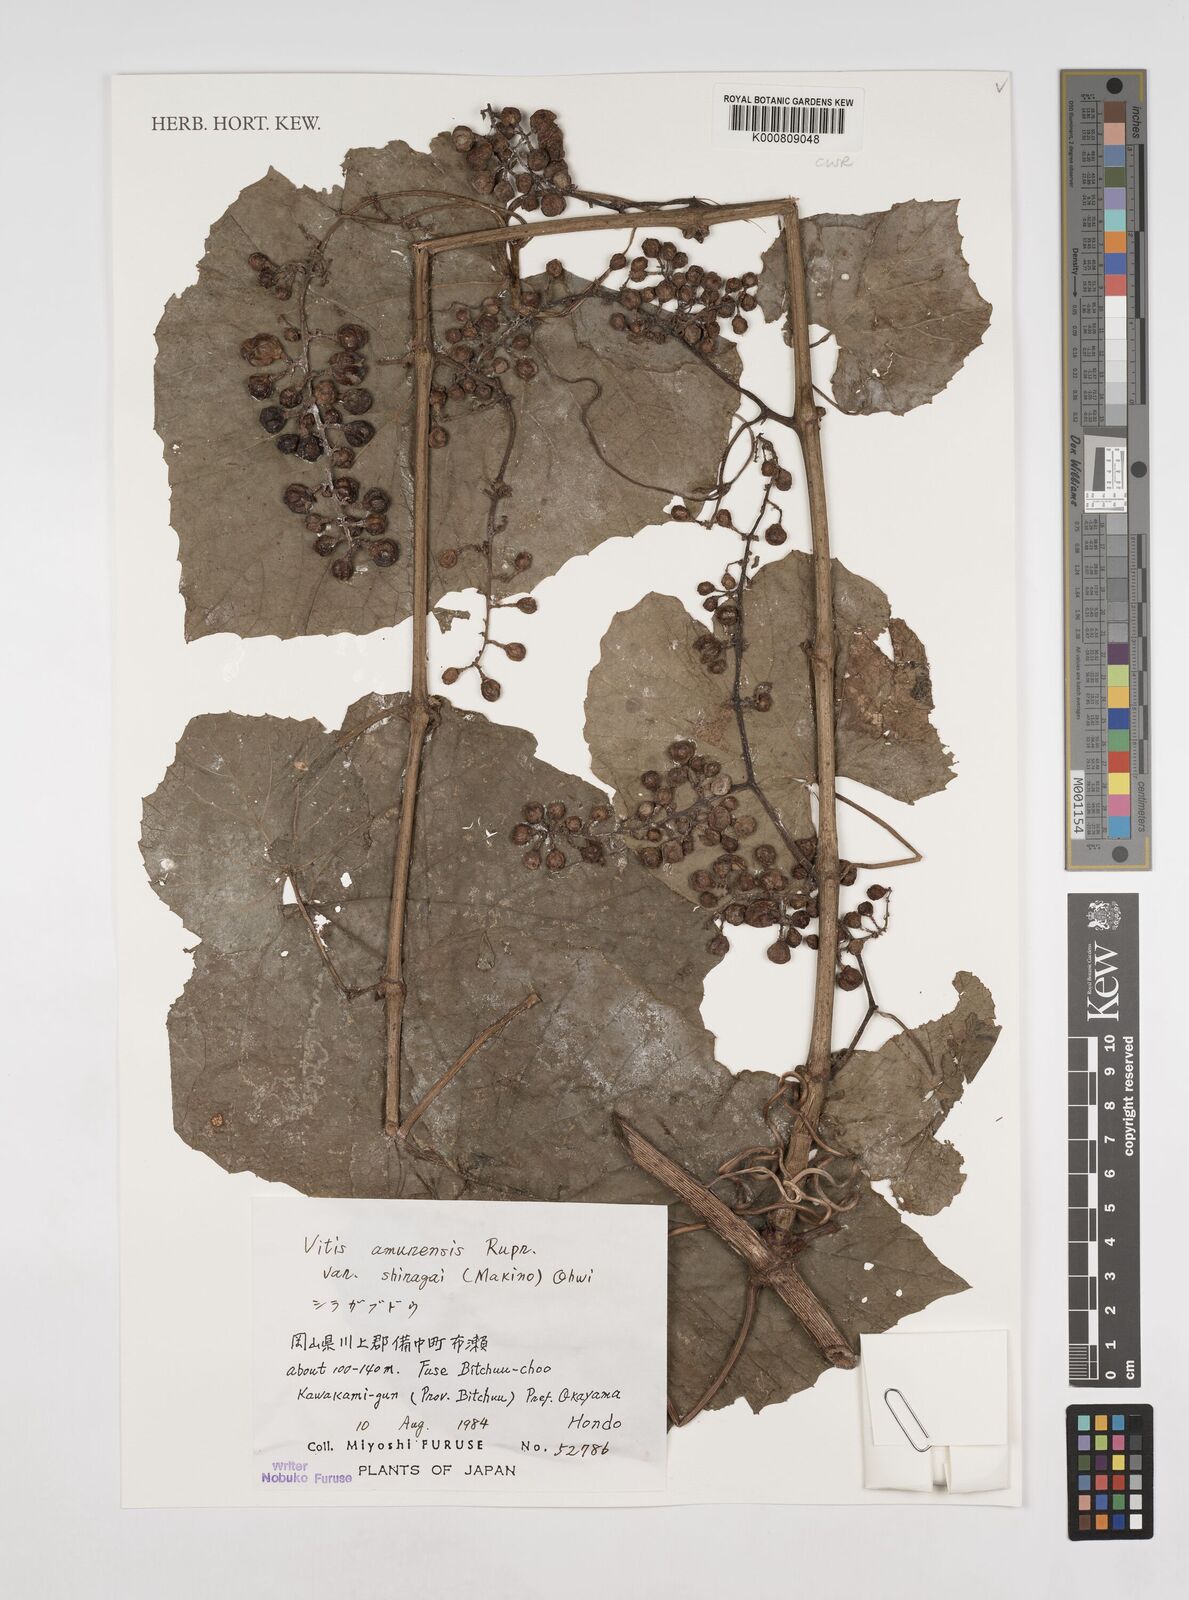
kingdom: Plantae
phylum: Tracheophyta
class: Magnoliopsida
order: Vitales
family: Vitaceae
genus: Vitis
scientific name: Vitis amurensis
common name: Amur grape
